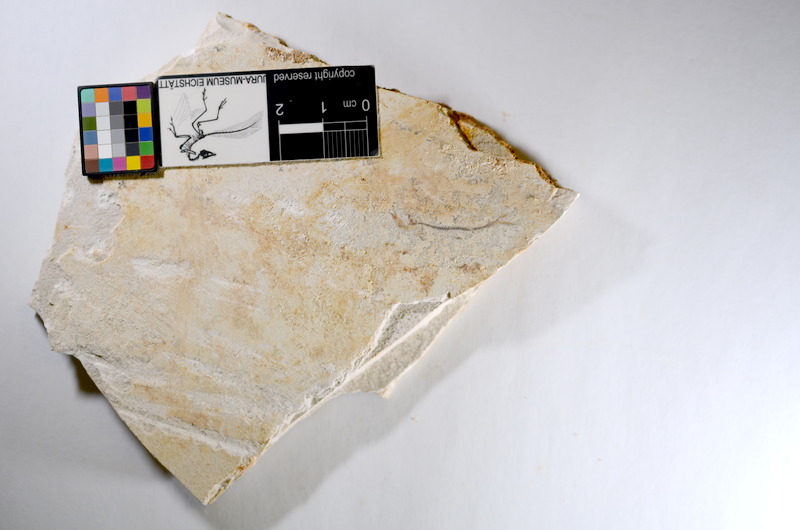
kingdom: Animalia
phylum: Chordata
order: Salmoniformes
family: Orthogonikleithridae
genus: Orthogonikleithrus
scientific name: Orthogonikleithrus hoelli
